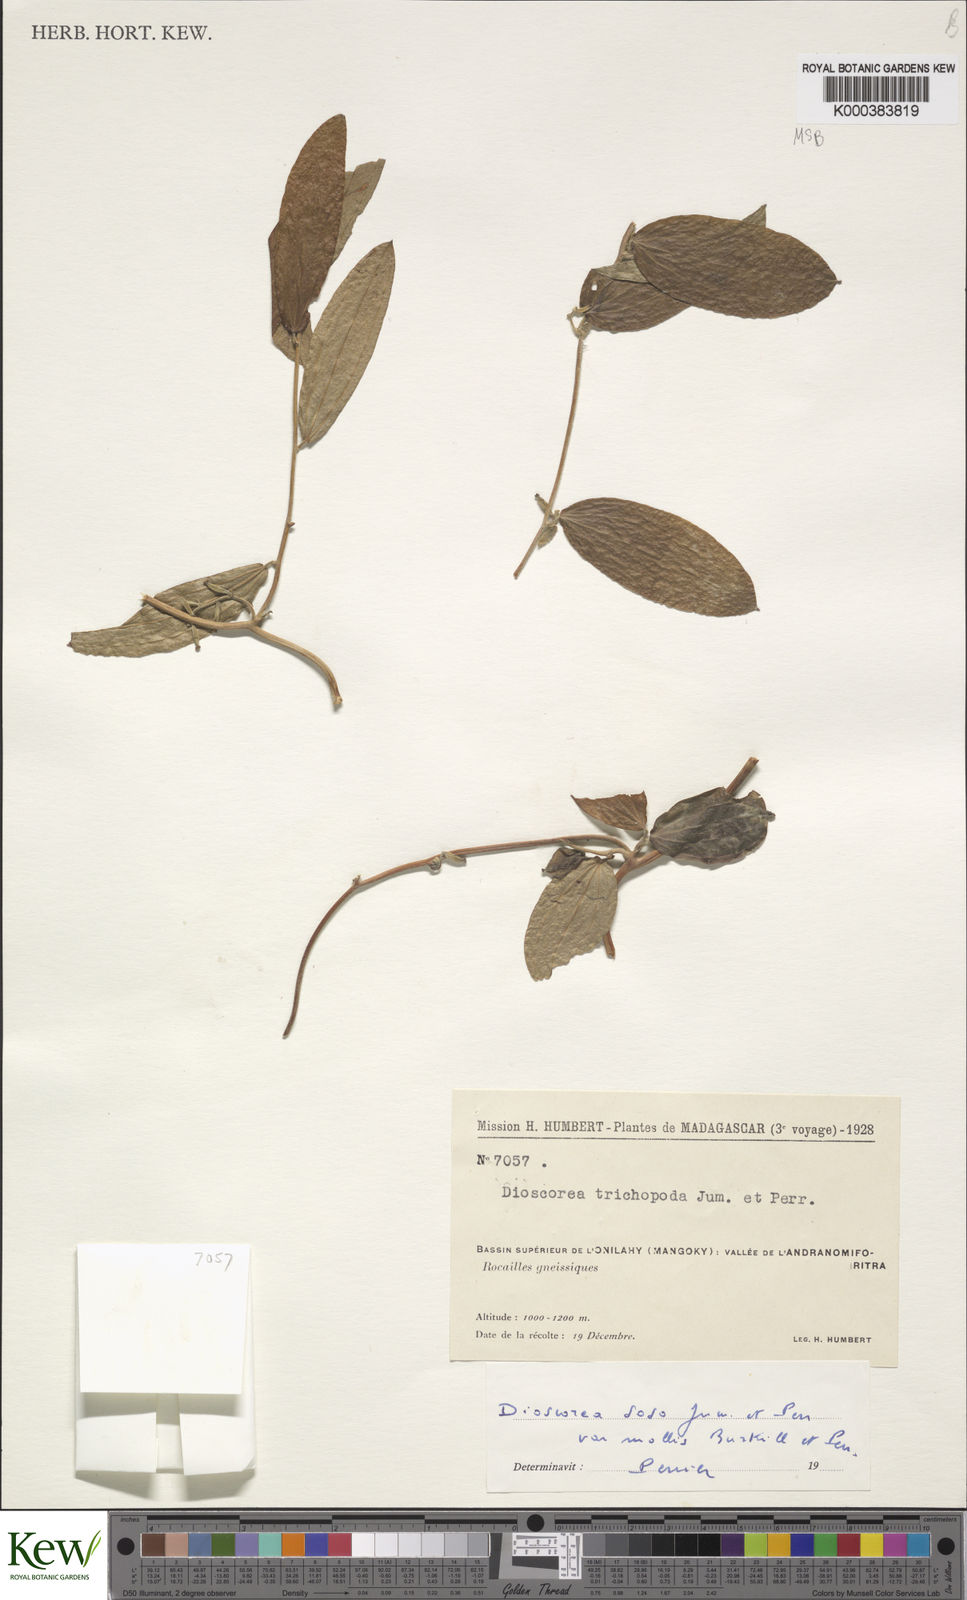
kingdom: Plantae
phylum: Tracheophyta
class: Liliopsida
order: Dioscoreales
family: Dioscoreaceae
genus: Dioscorea
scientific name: Dioscorea
